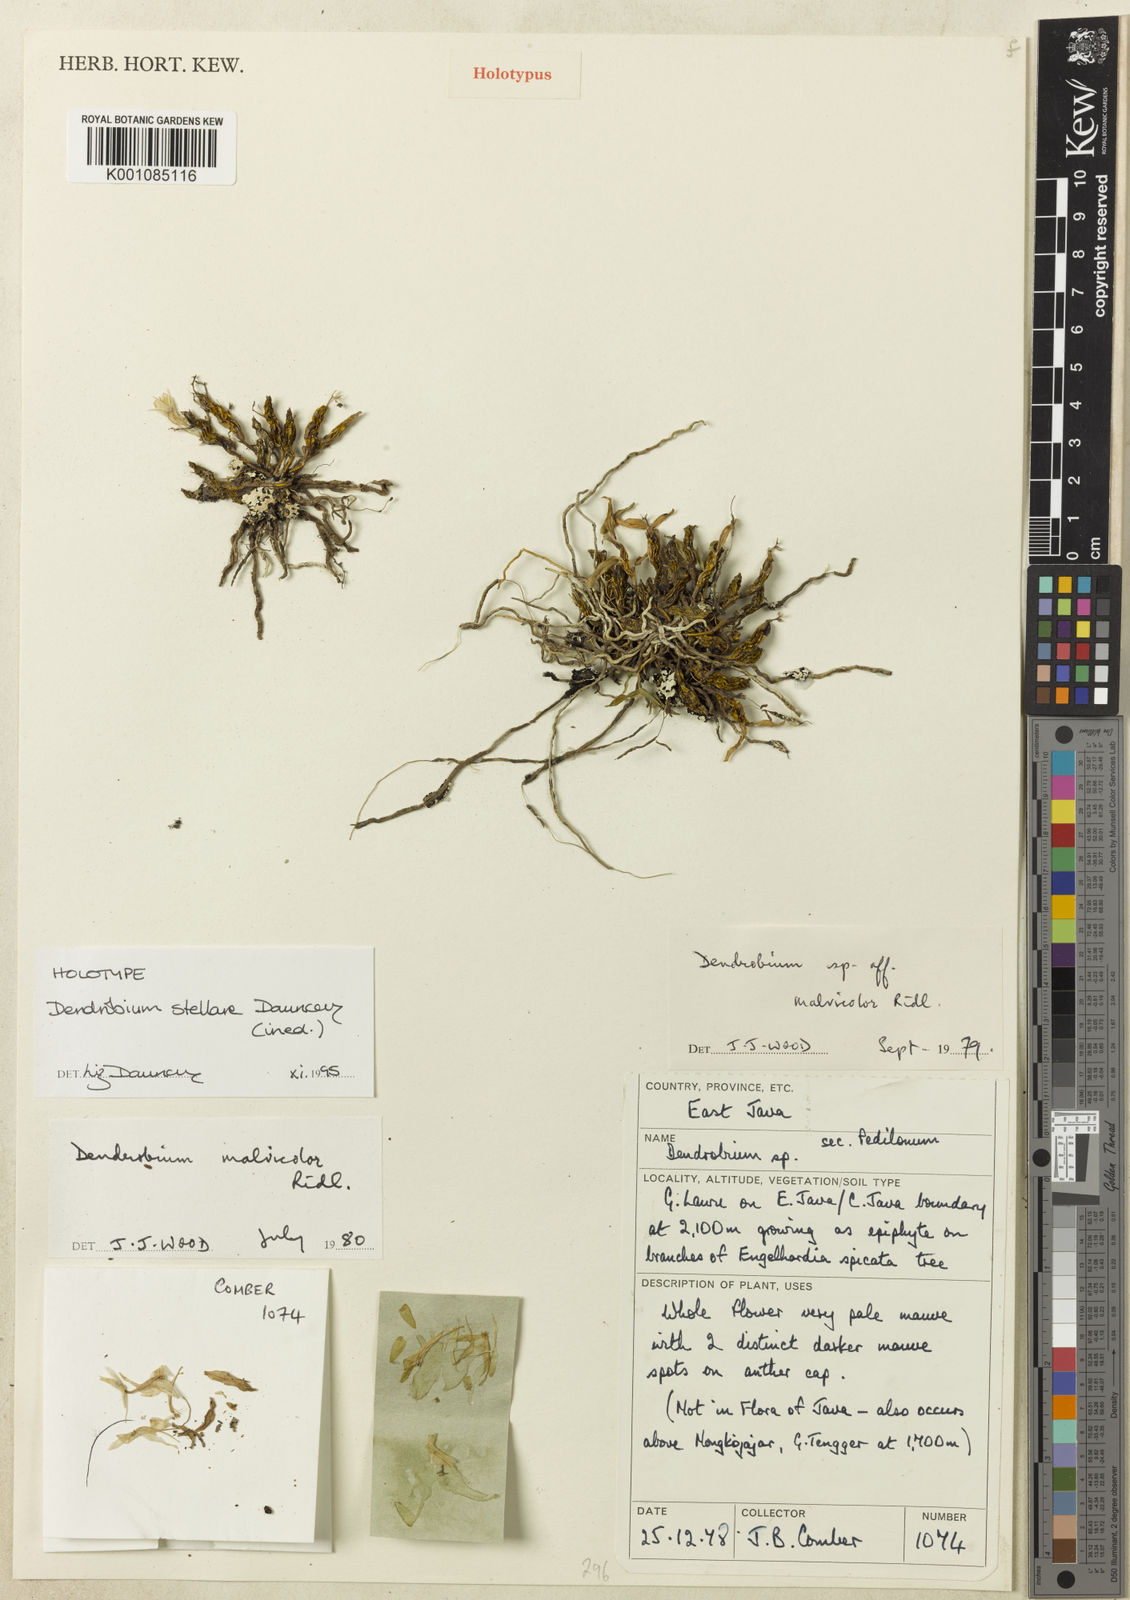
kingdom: Plantae
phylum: Tracheophyta
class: Liliopsida
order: Asparagales
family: Orchidaceae
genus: Dendrobium
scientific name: Dendrobium stellare
